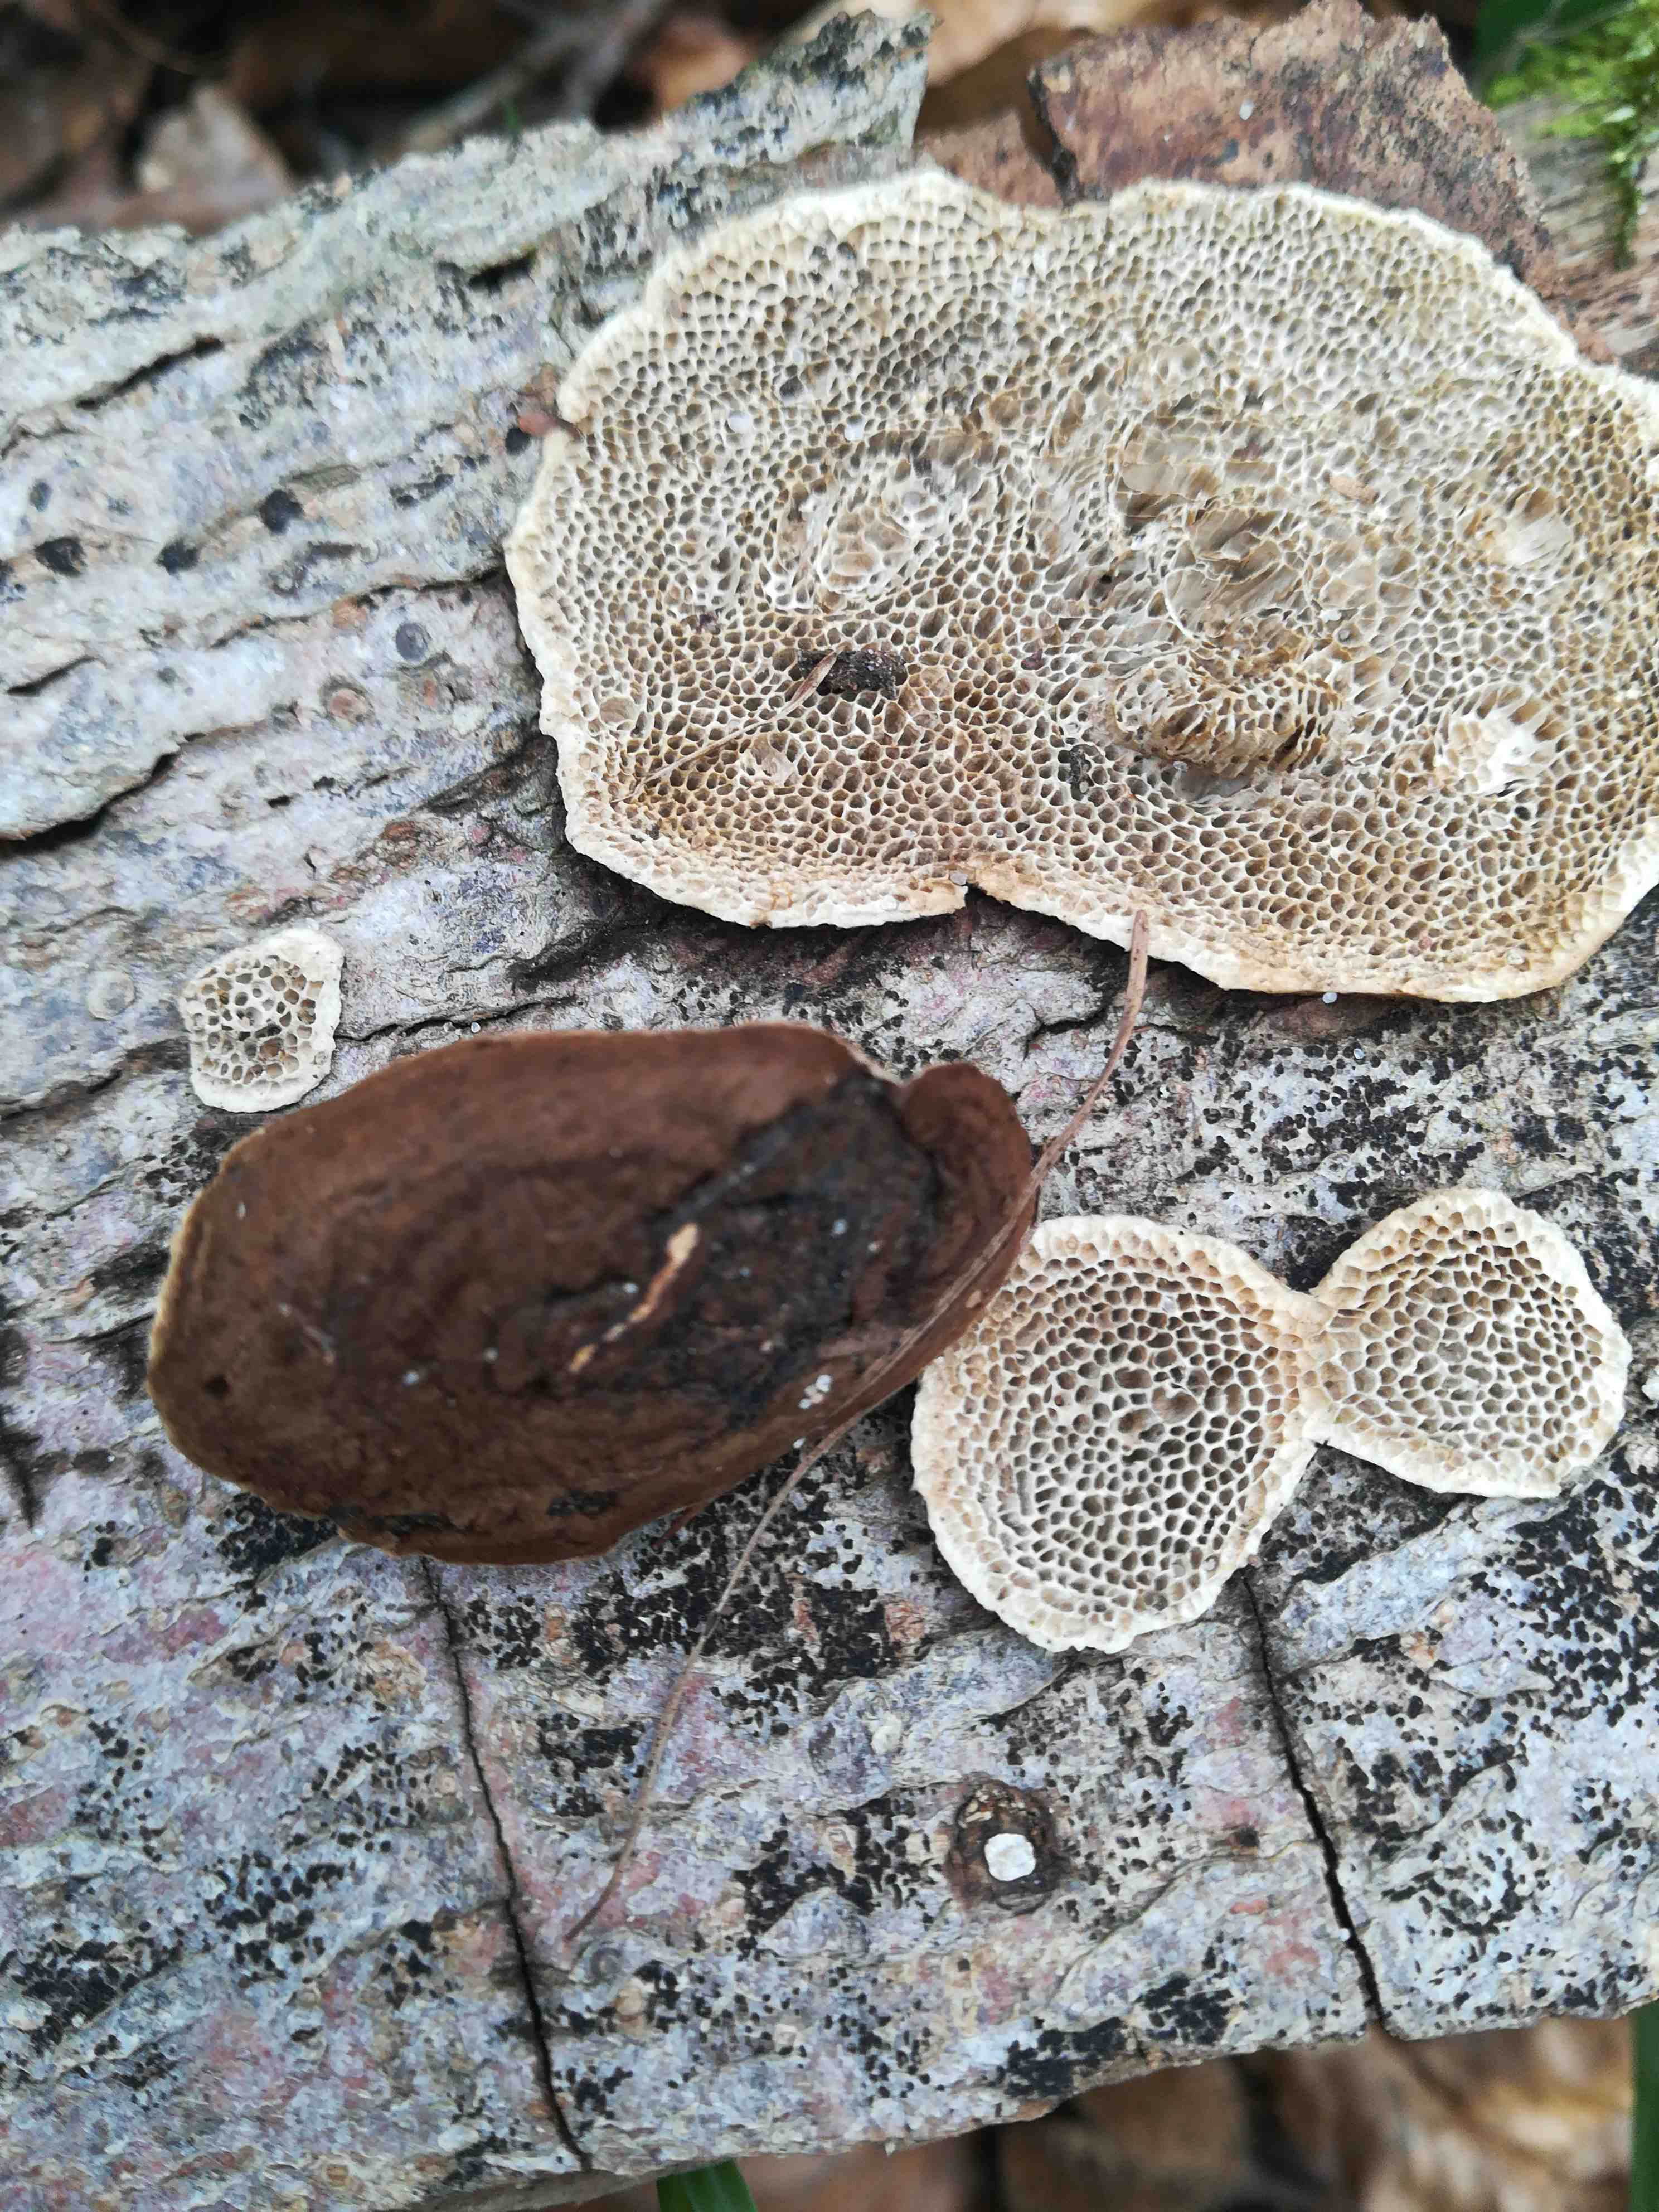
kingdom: Fungi
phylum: Basidiomycota
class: Agaricomycetes
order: Polyporales
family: Polyporaceae
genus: Podofomes
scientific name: Podofomes mollis
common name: blød begporesvamp
